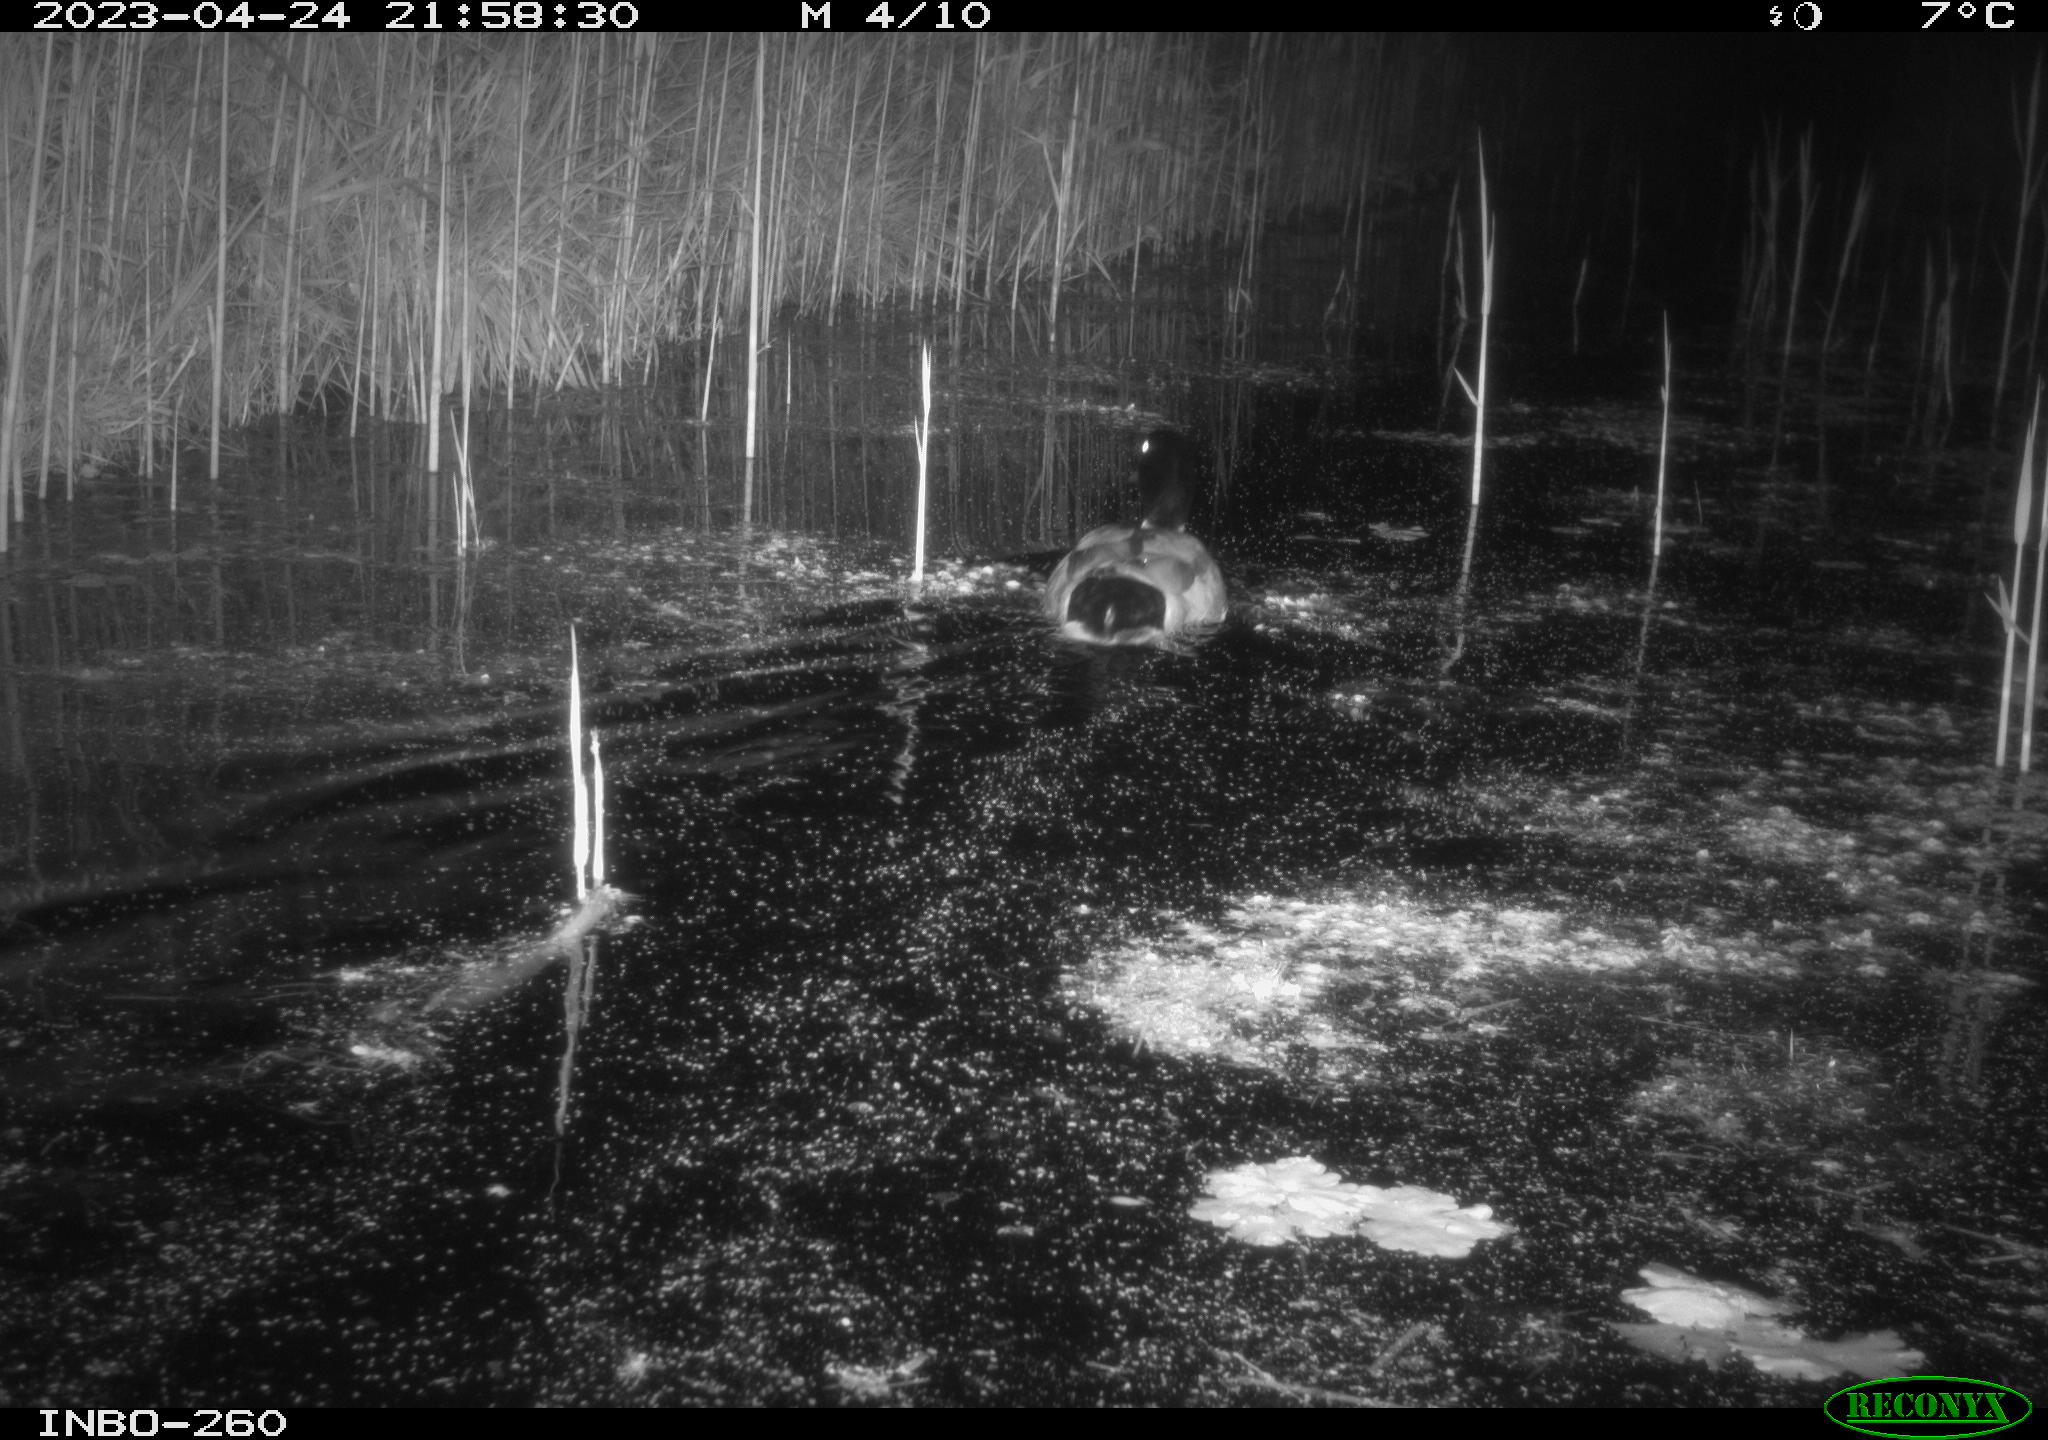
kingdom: Animalia
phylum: Chordata
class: Aves
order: Anseriformes
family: Anatidae
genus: Anas
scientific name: Anas
